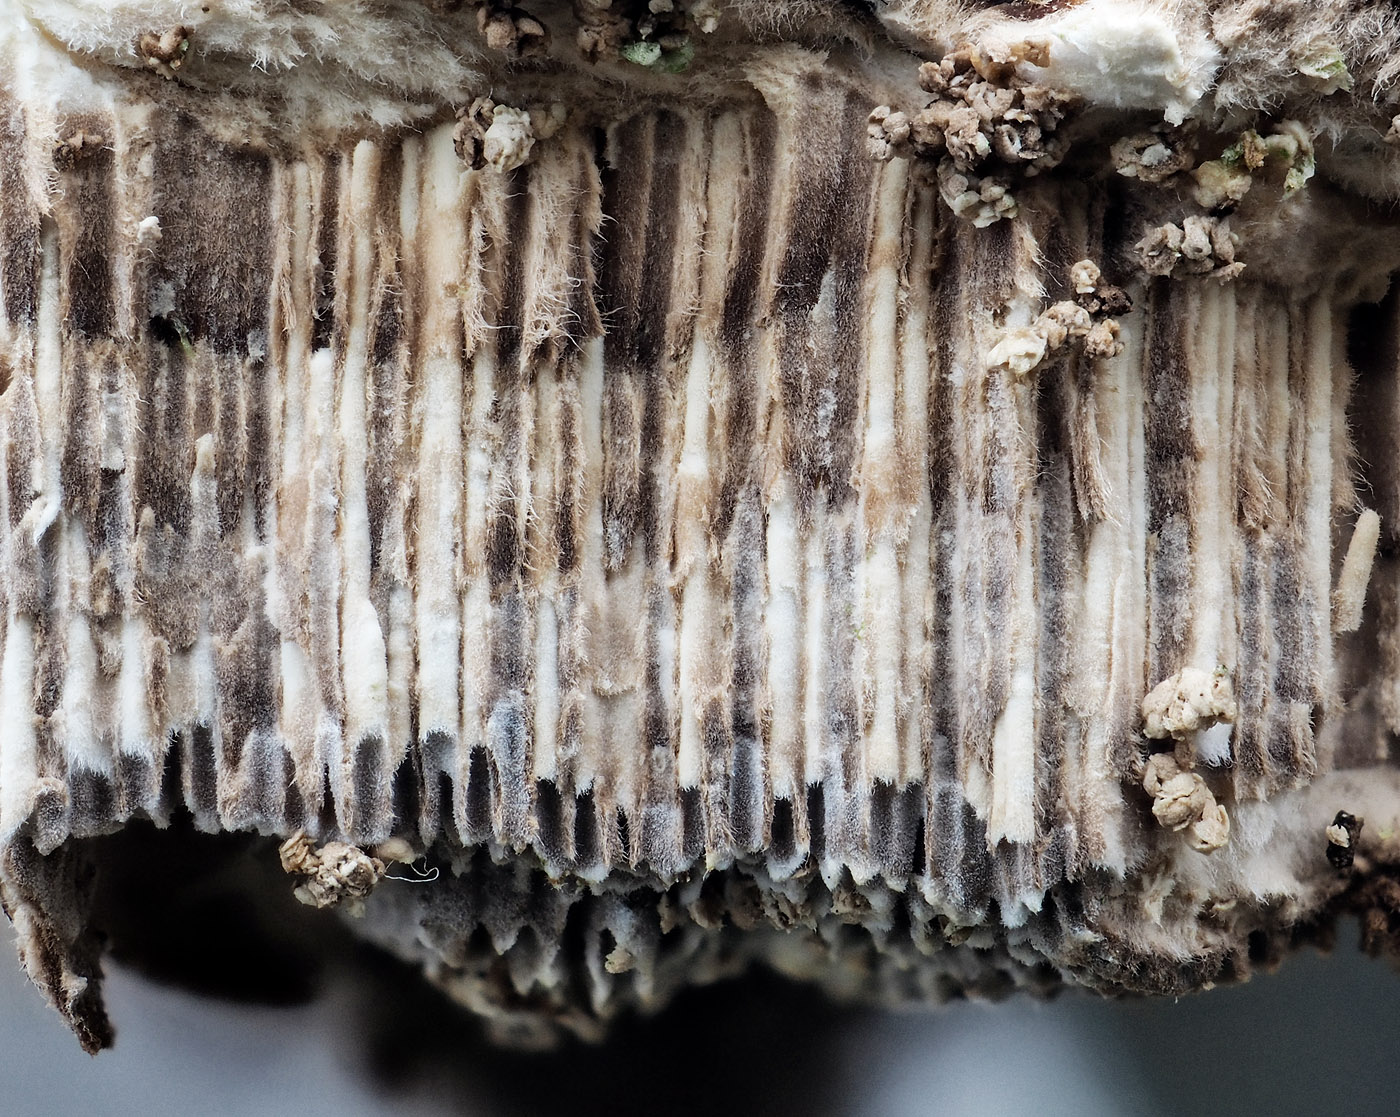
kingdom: Fungi
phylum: Basidiomycota
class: Agaricomycetes
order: Polyporales
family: Cerrenaceae
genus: Cerrena
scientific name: Cerrena unicolor
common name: ensfarvet læderporesvamp
